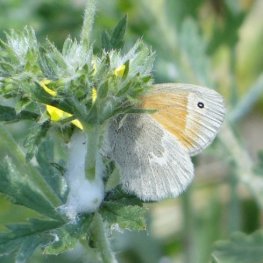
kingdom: Animalia
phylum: Arthropoda
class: Insecta
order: Lepidoptera
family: Nymphalidae
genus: Coenonympha
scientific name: Coenonympha tullia
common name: Large Heath
